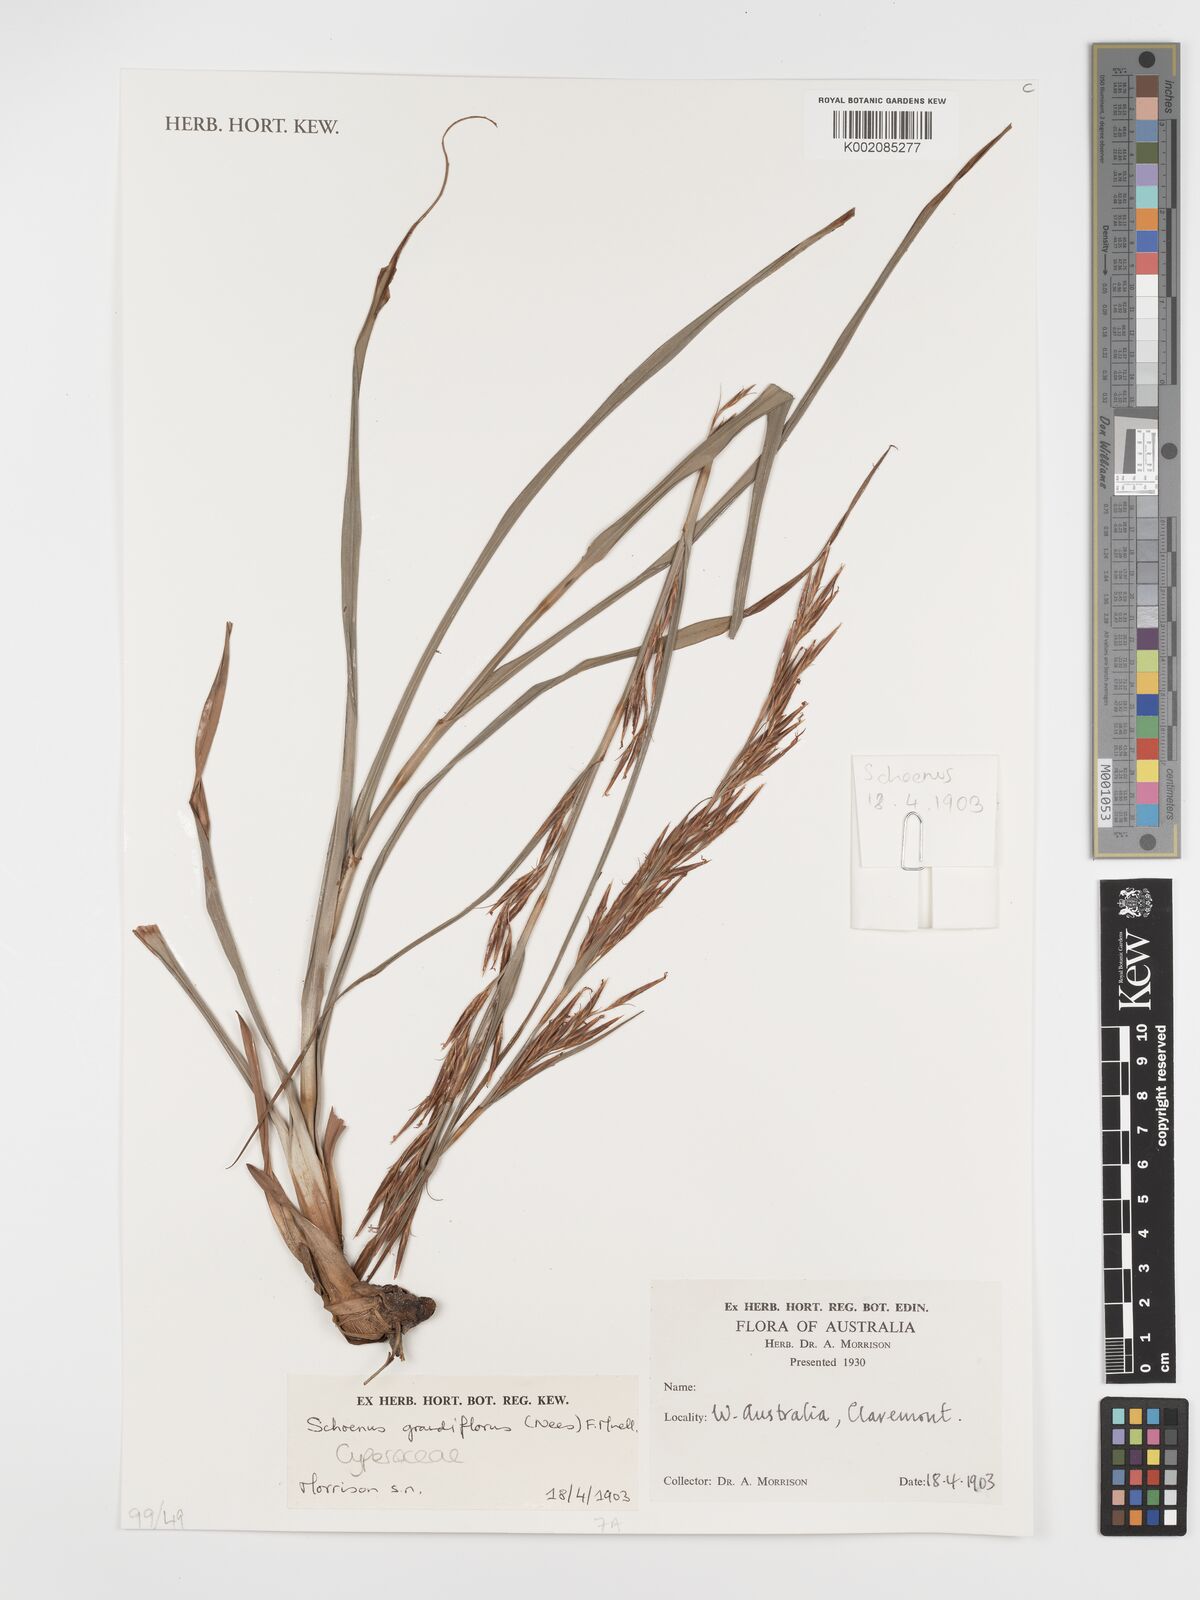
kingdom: Plantae
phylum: Tracheophyta
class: Liliopsida
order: Poales
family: Cyperaceae
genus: Schoenus
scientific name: Schoenus grandiflorus
